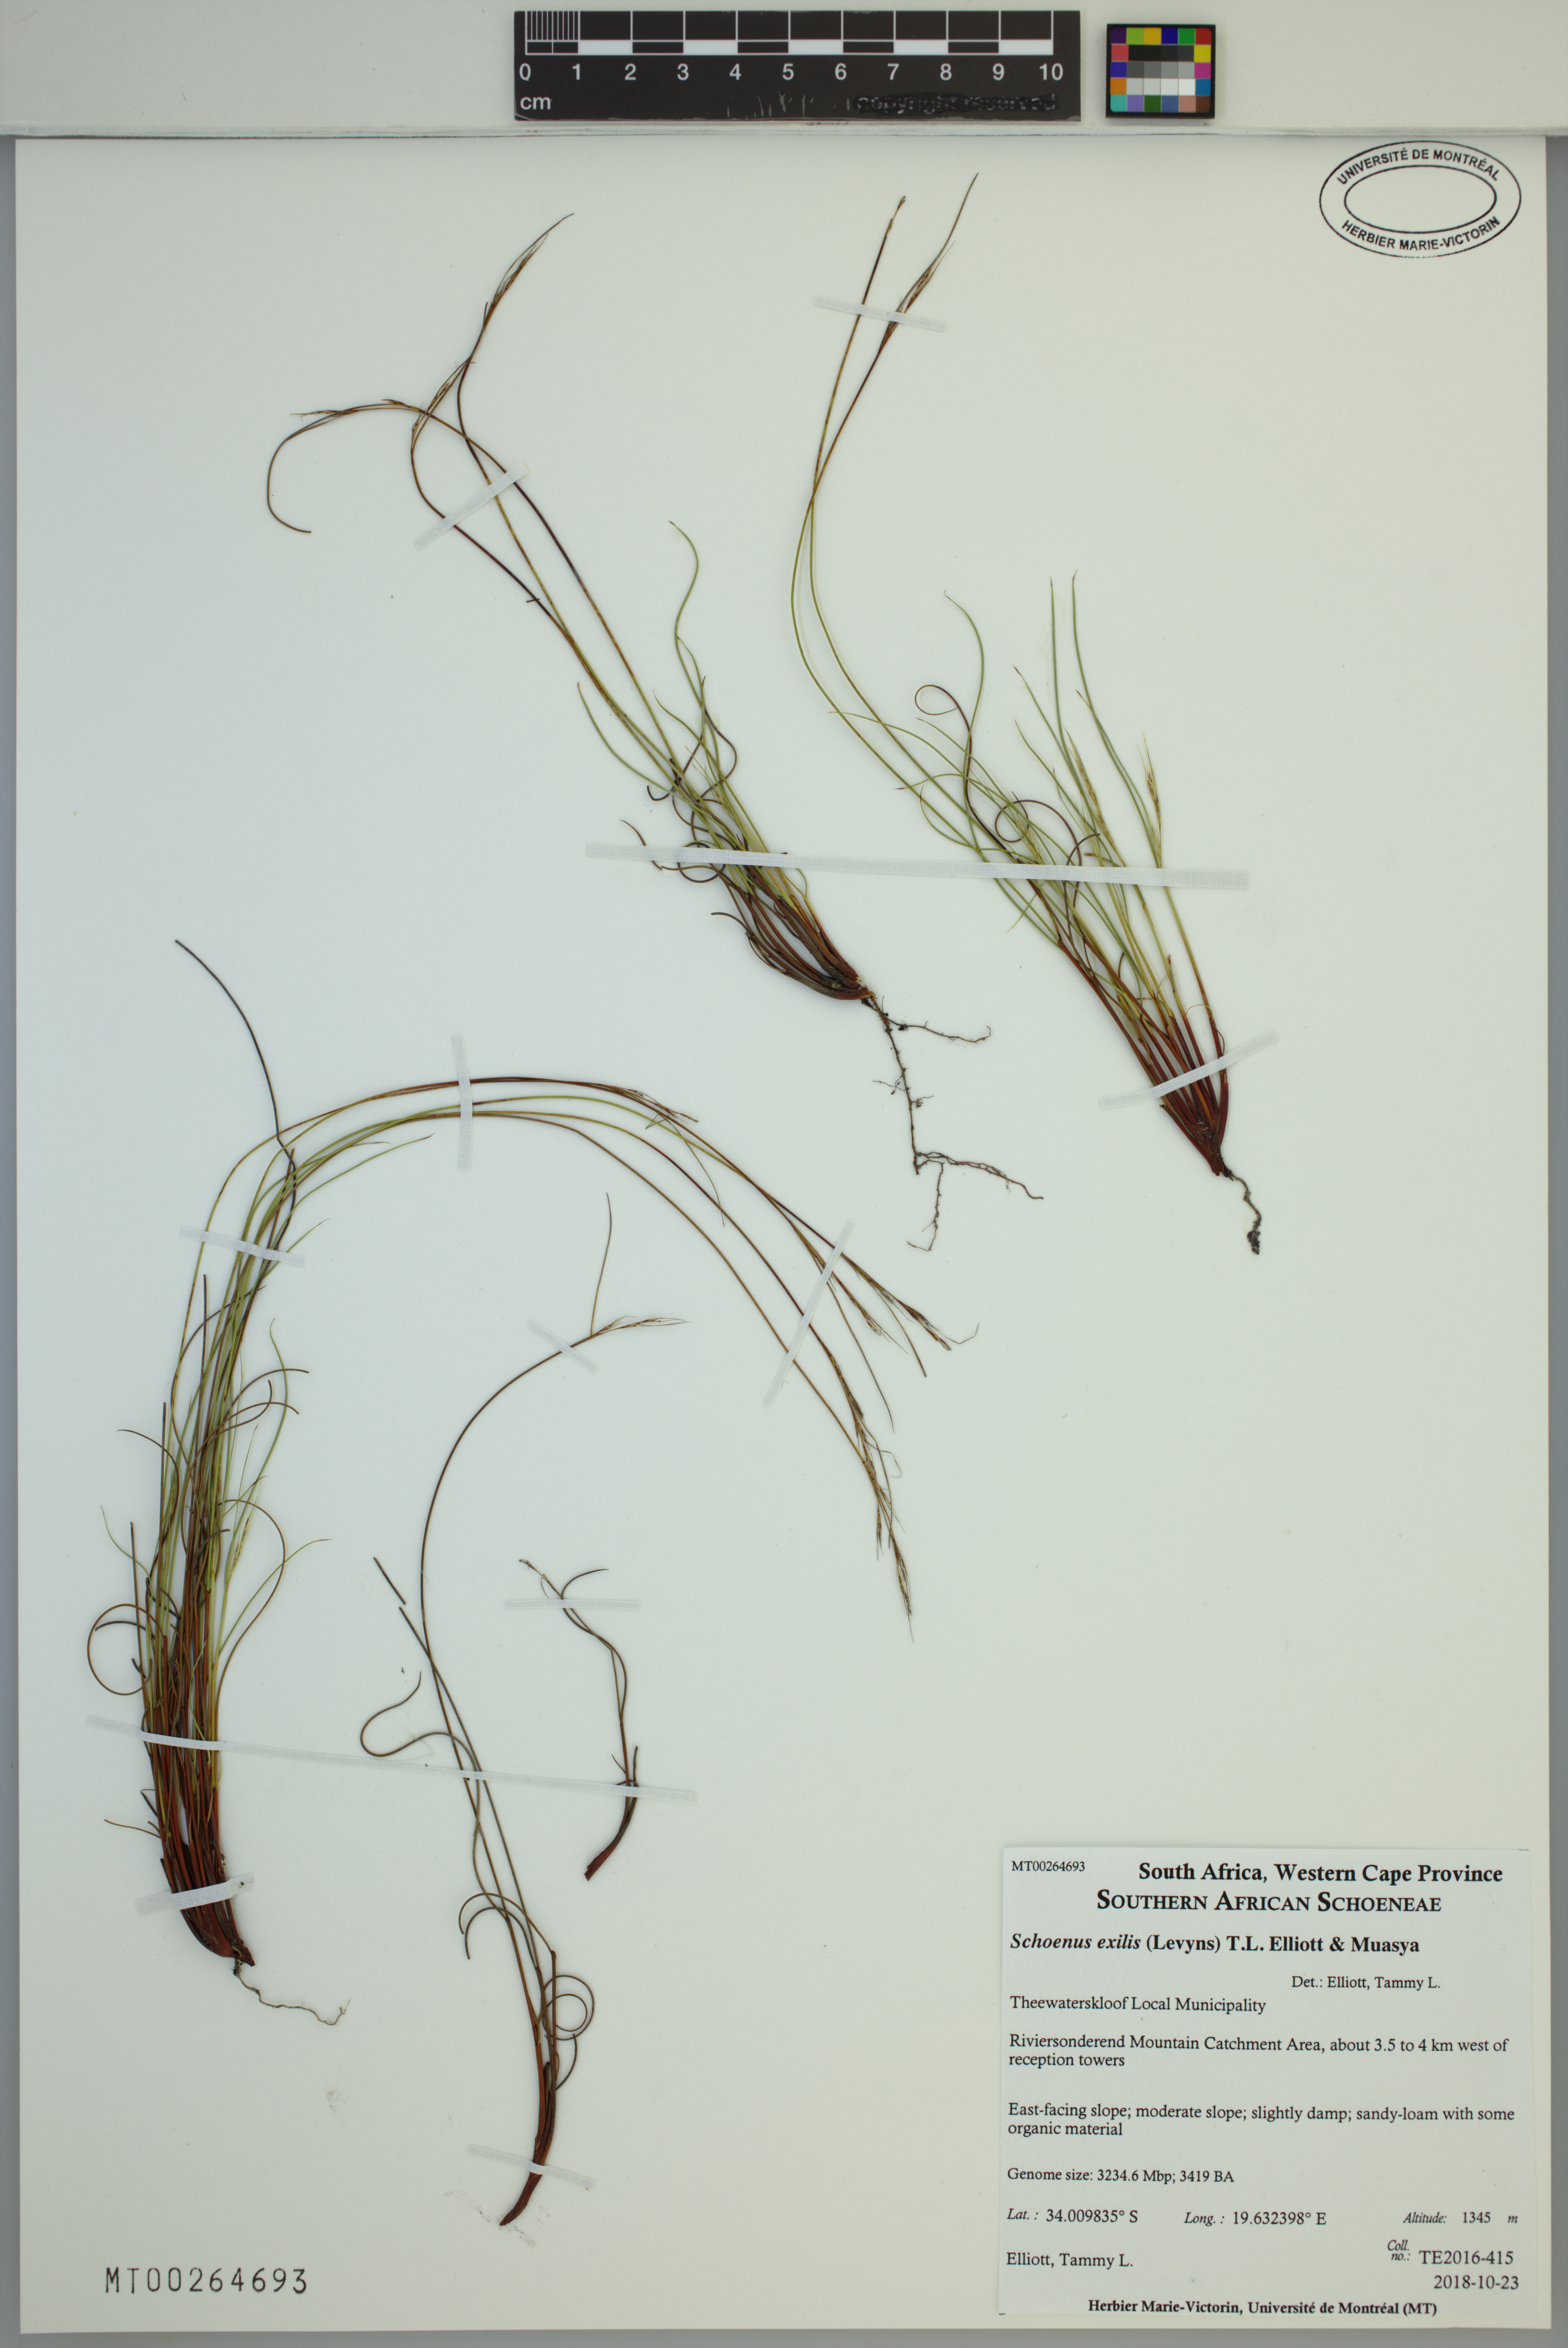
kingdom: Plantae
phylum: Tracheophyta
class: Liliopsida
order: Poales
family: Cyperaceae
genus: Schoenus
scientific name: Schoenus exilis
